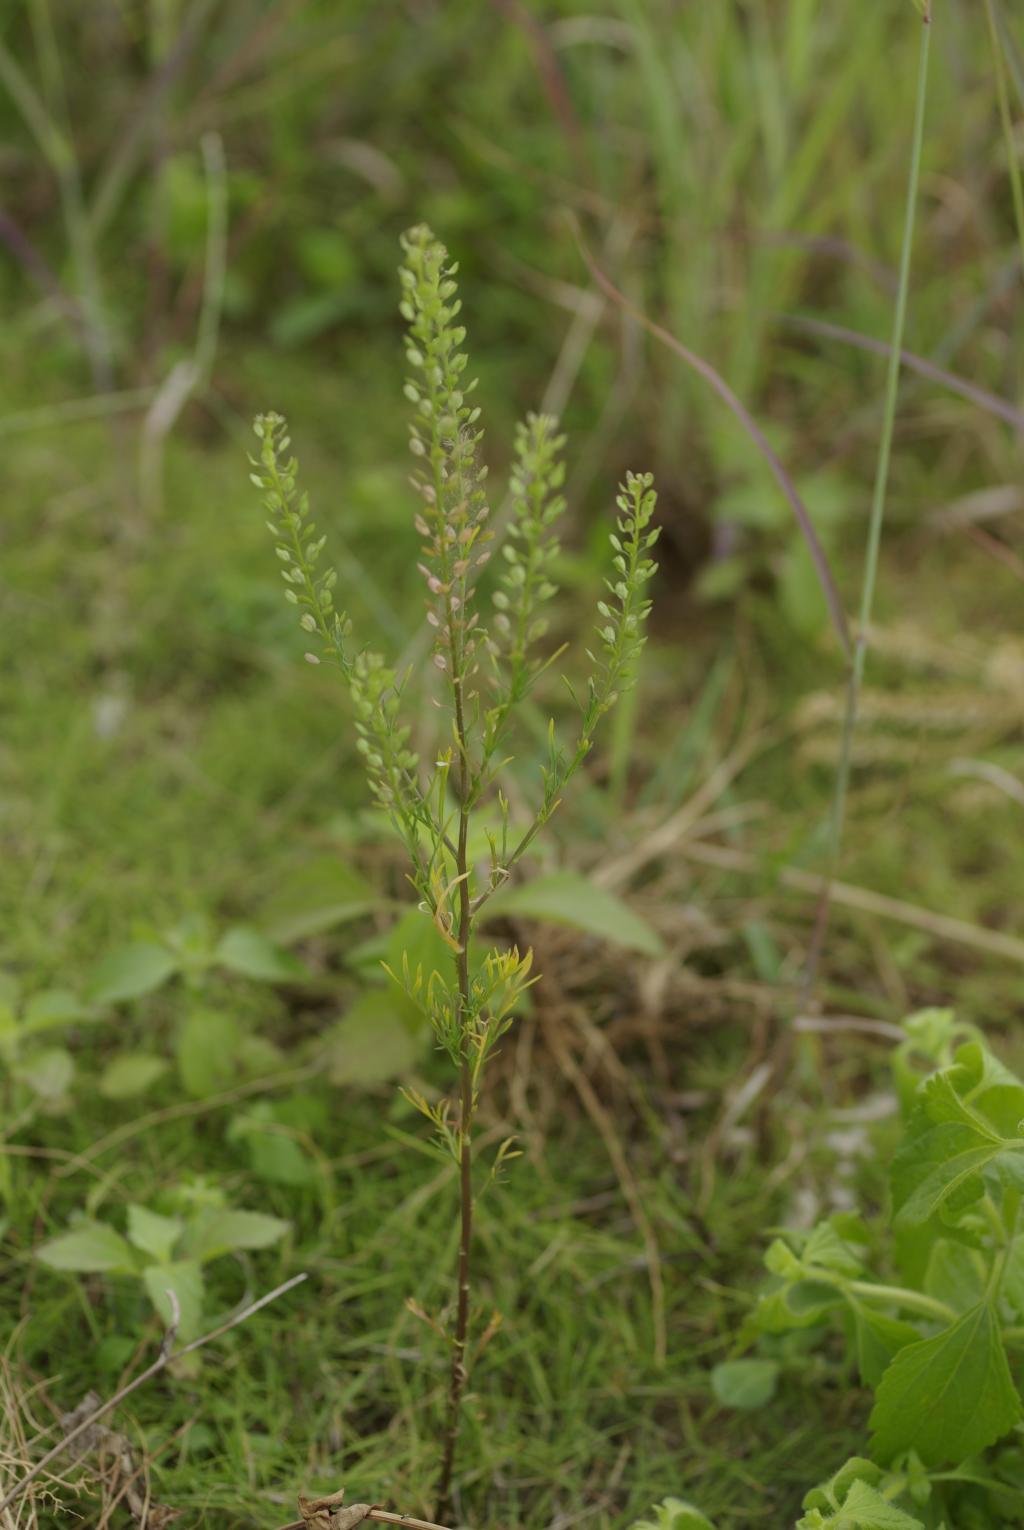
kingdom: Plantae
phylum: Tracheophyta
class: Magnoliopsida
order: Brassicales
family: Brassicaceae
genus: Lepidium
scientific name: Lepidium bonariense
